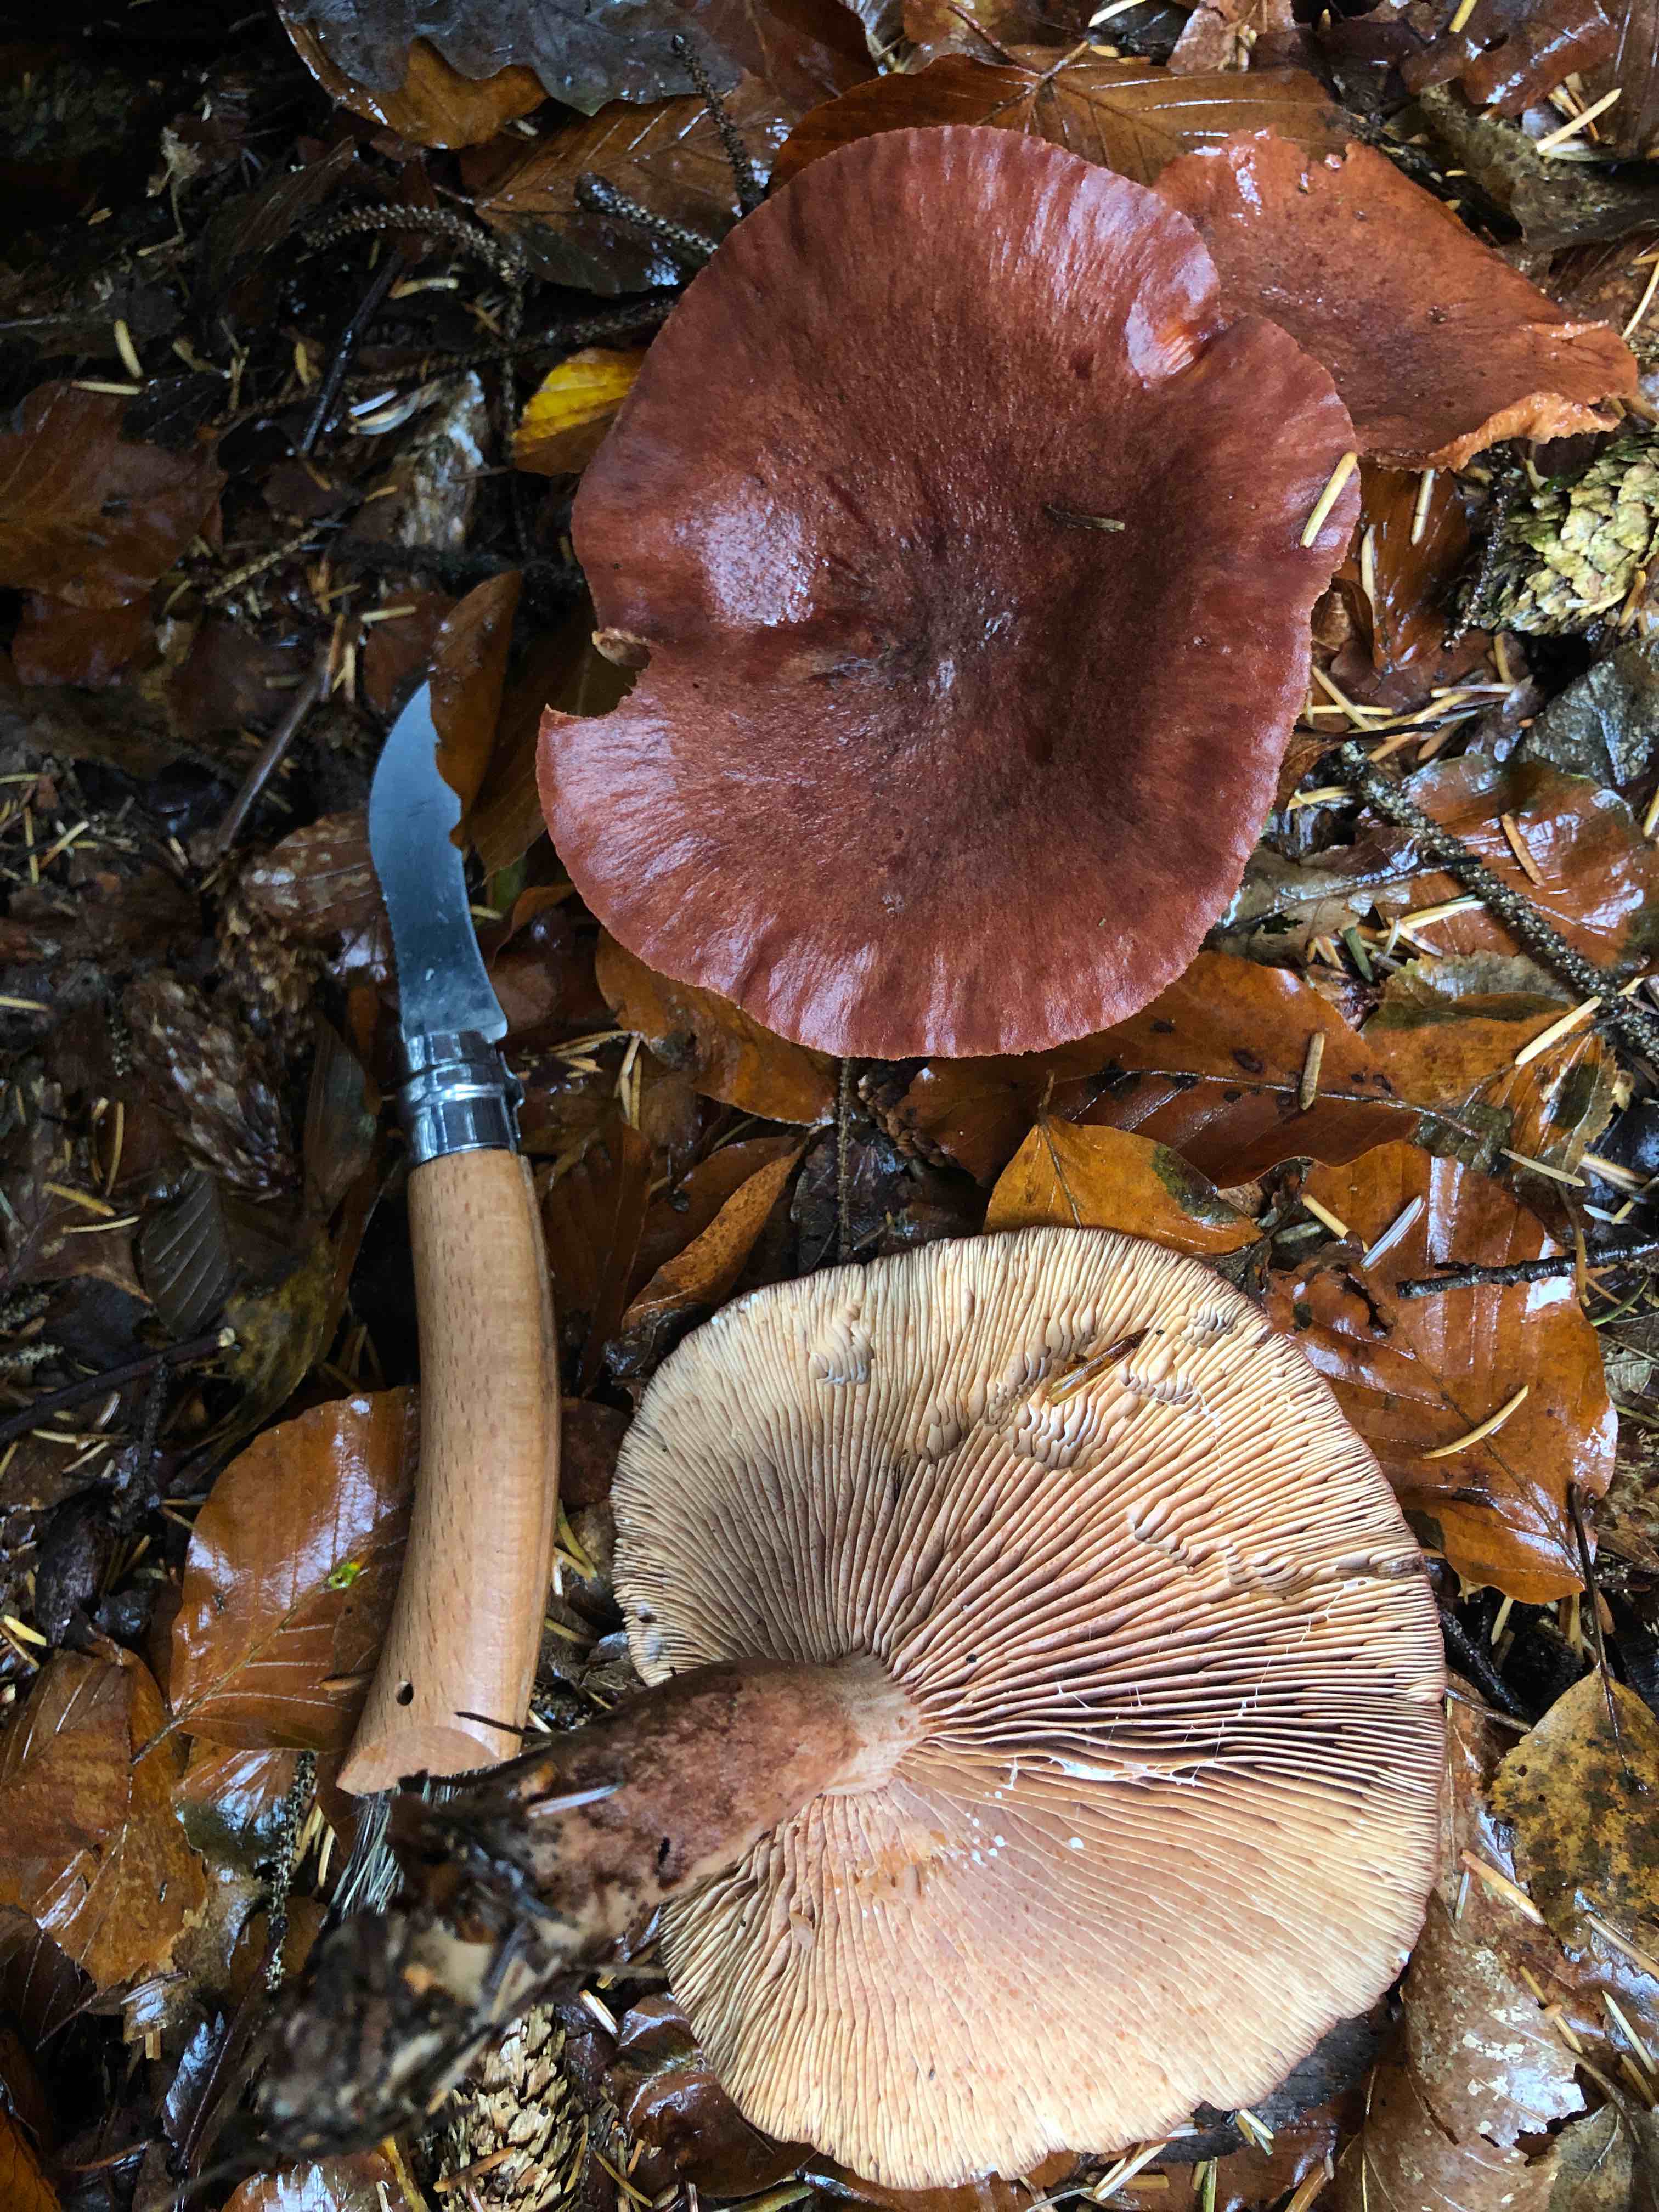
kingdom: Fungi
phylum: Basidiomycota
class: Agaricomycetes
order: Russulales
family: Russulaceae
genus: Lactarius
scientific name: Lactarius rufus
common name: rødbrun mælkehat
